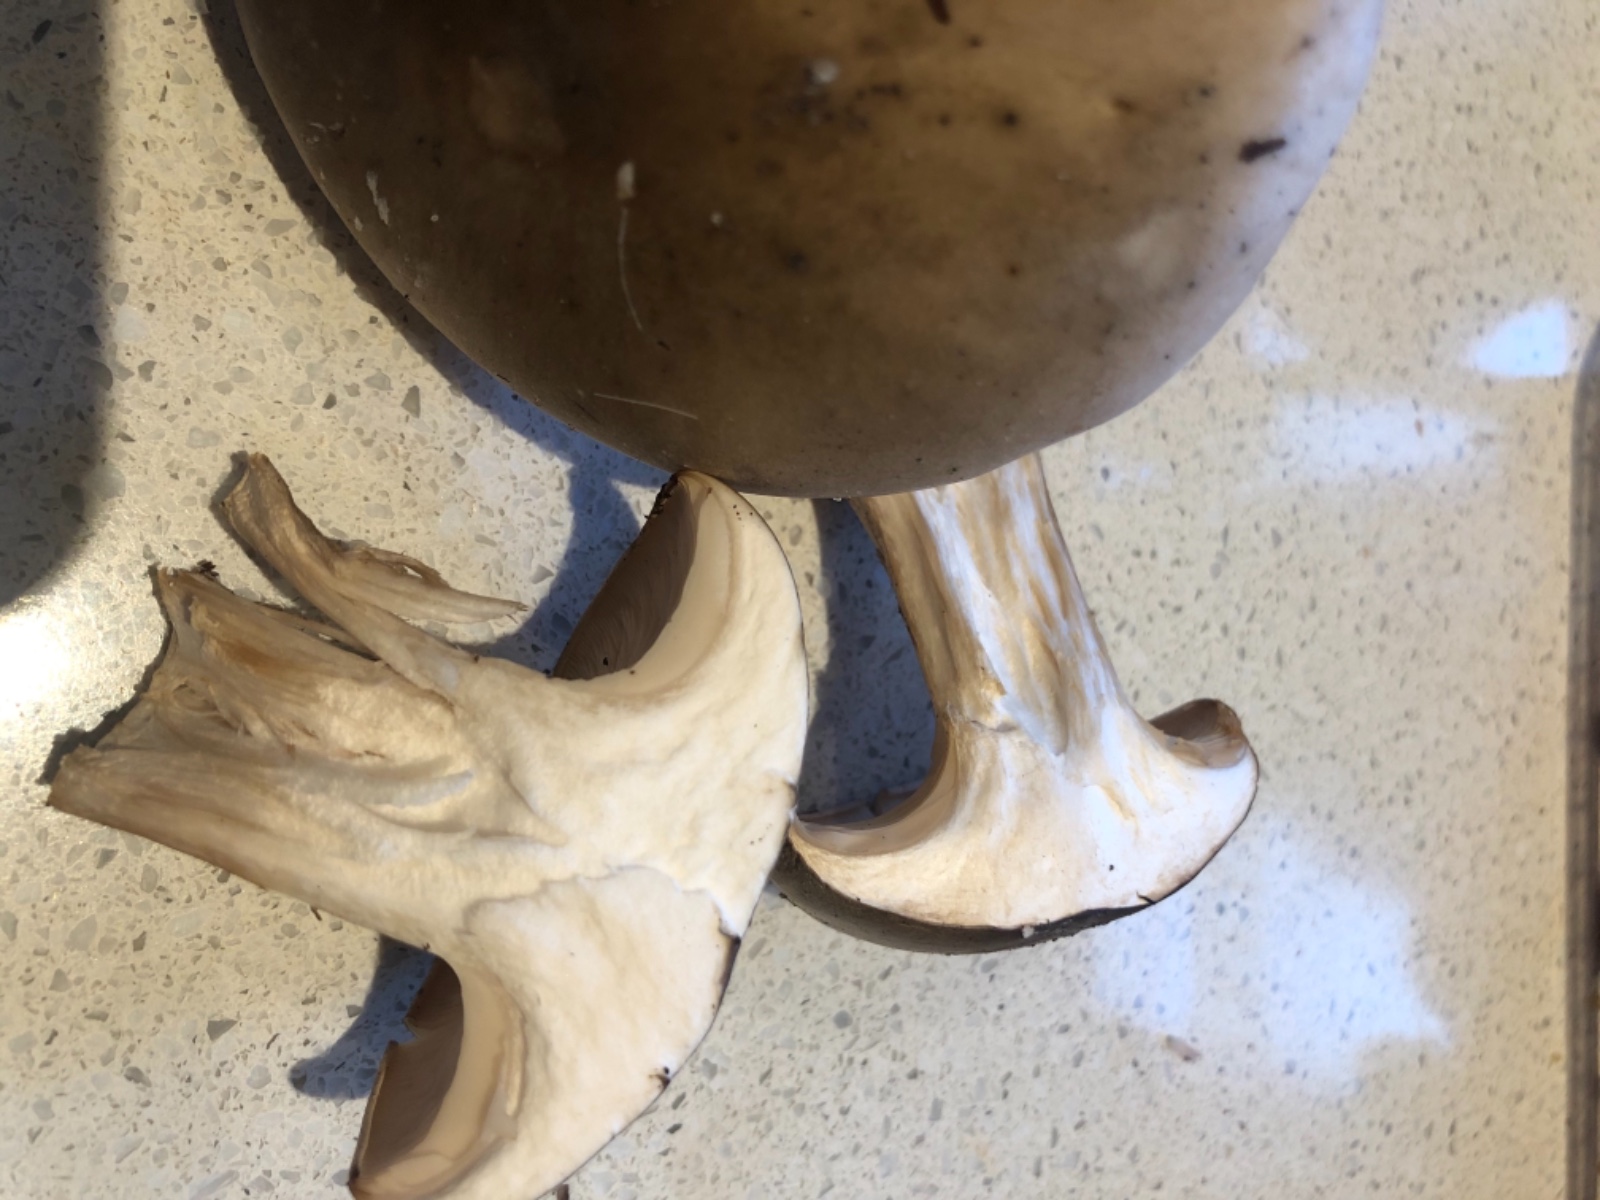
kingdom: Fungi
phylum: Basidiomycota
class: Agaricomycetes
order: Agaricales
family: Tricholomataceae
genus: Clitocybe
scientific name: Clitocybe nebularis
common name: tåge-tragthat
